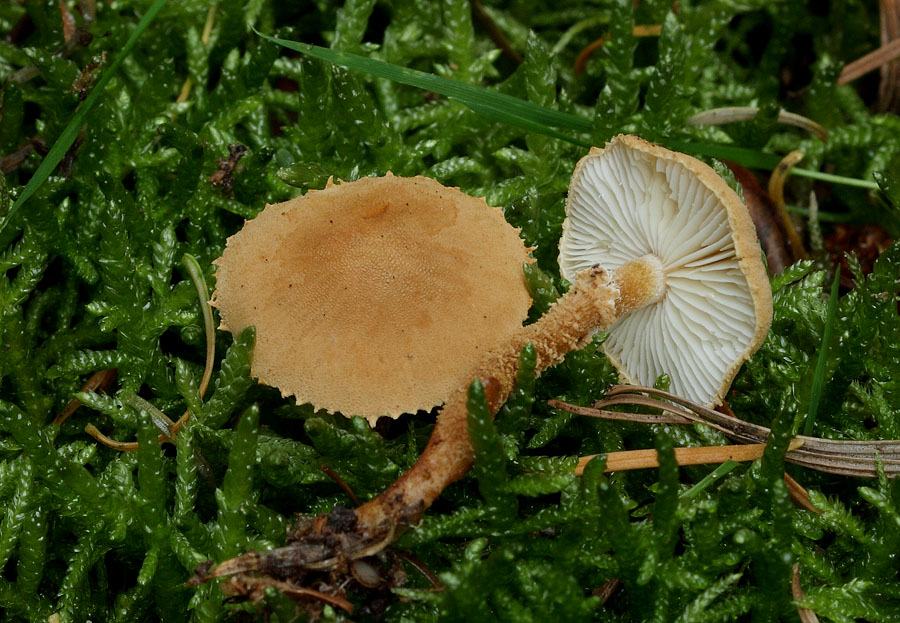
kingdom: Fungi
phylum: Basidiomycota
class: Agaricomycetes
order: Agaricales
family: Tricholomataceae
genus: Cystoderma
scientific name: Cystoderma amianthinum
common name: okkergul grynhat
